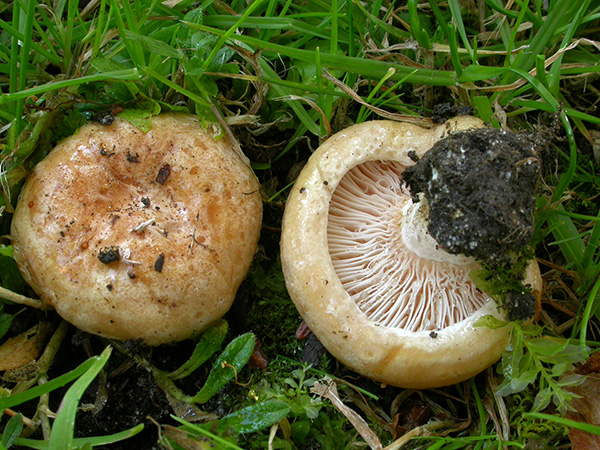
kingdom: Fungi
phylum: Basidiomycota
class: Agaricomycetes
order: Russulales
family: Russulaceae
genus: Lactarius
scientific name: Lactarius acerrimus
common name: brændende mælkehat
